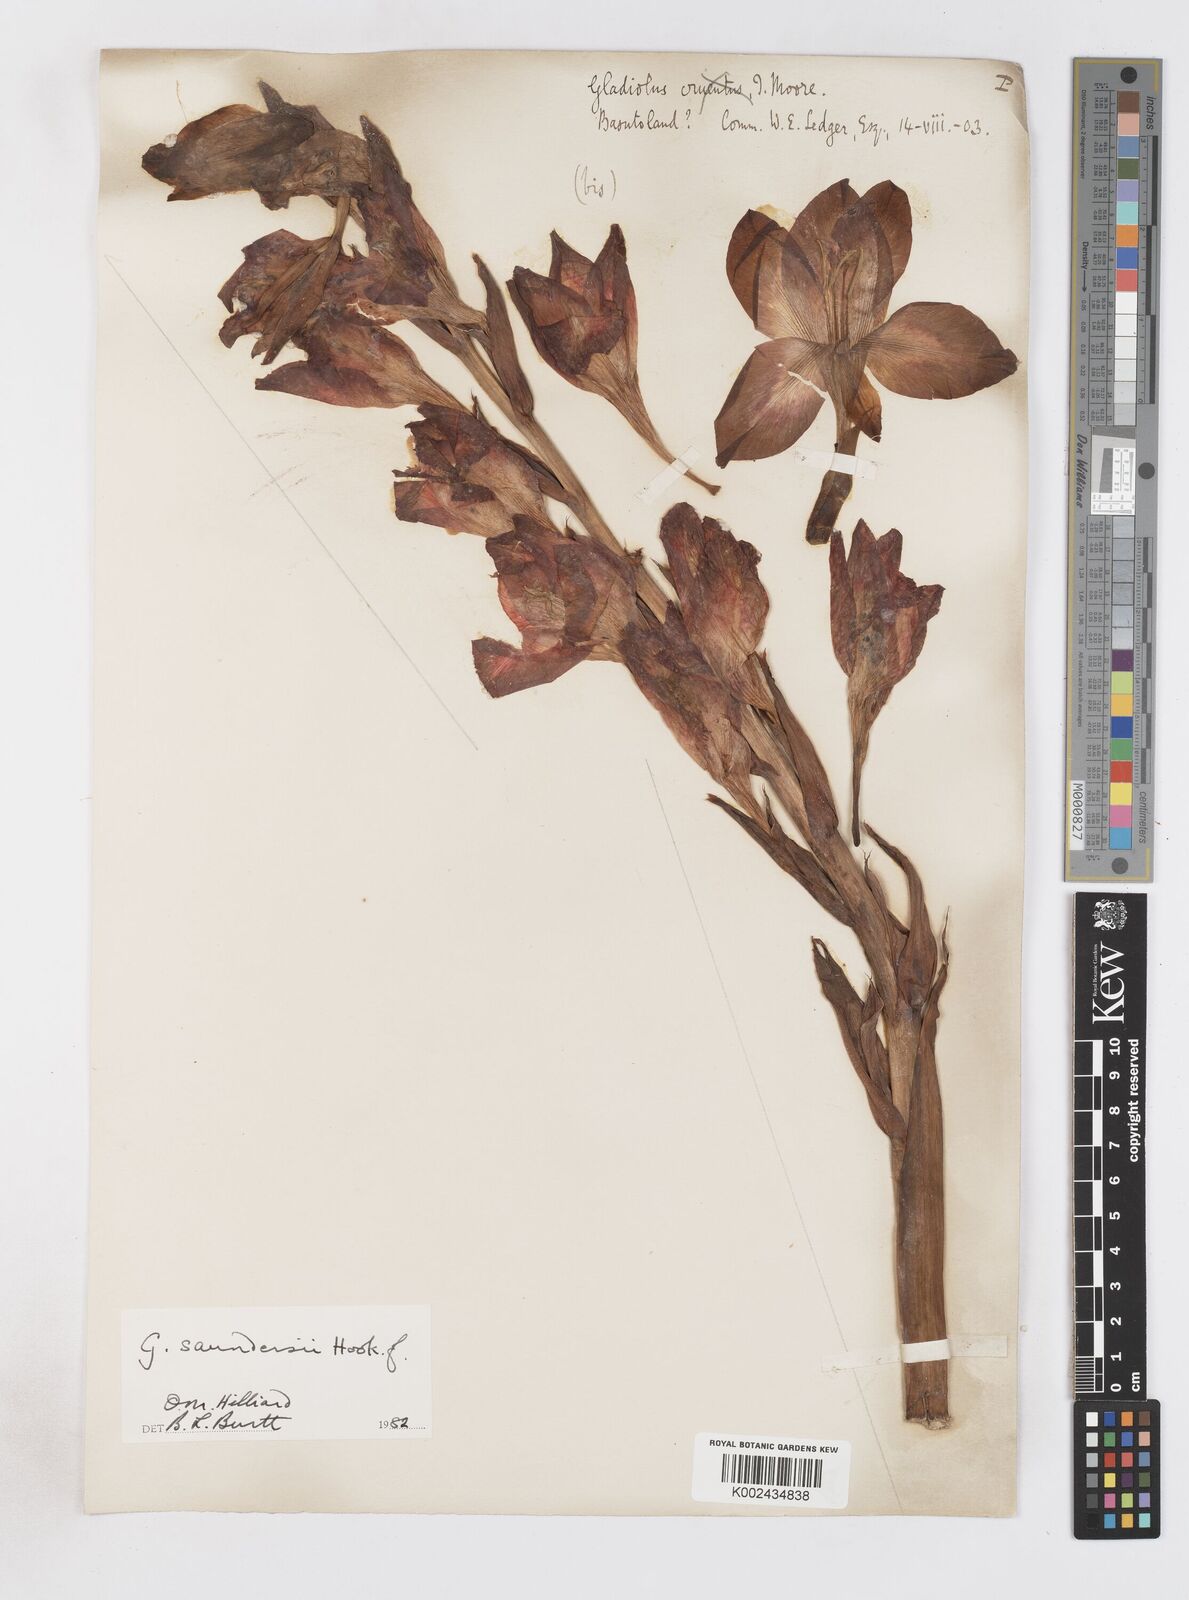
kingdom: Plantae
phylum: Tracheophyta
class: Liliopsida
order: Asparagales
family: Iridaceae
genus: Gladiolus
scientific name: Gladiolus saundersii
